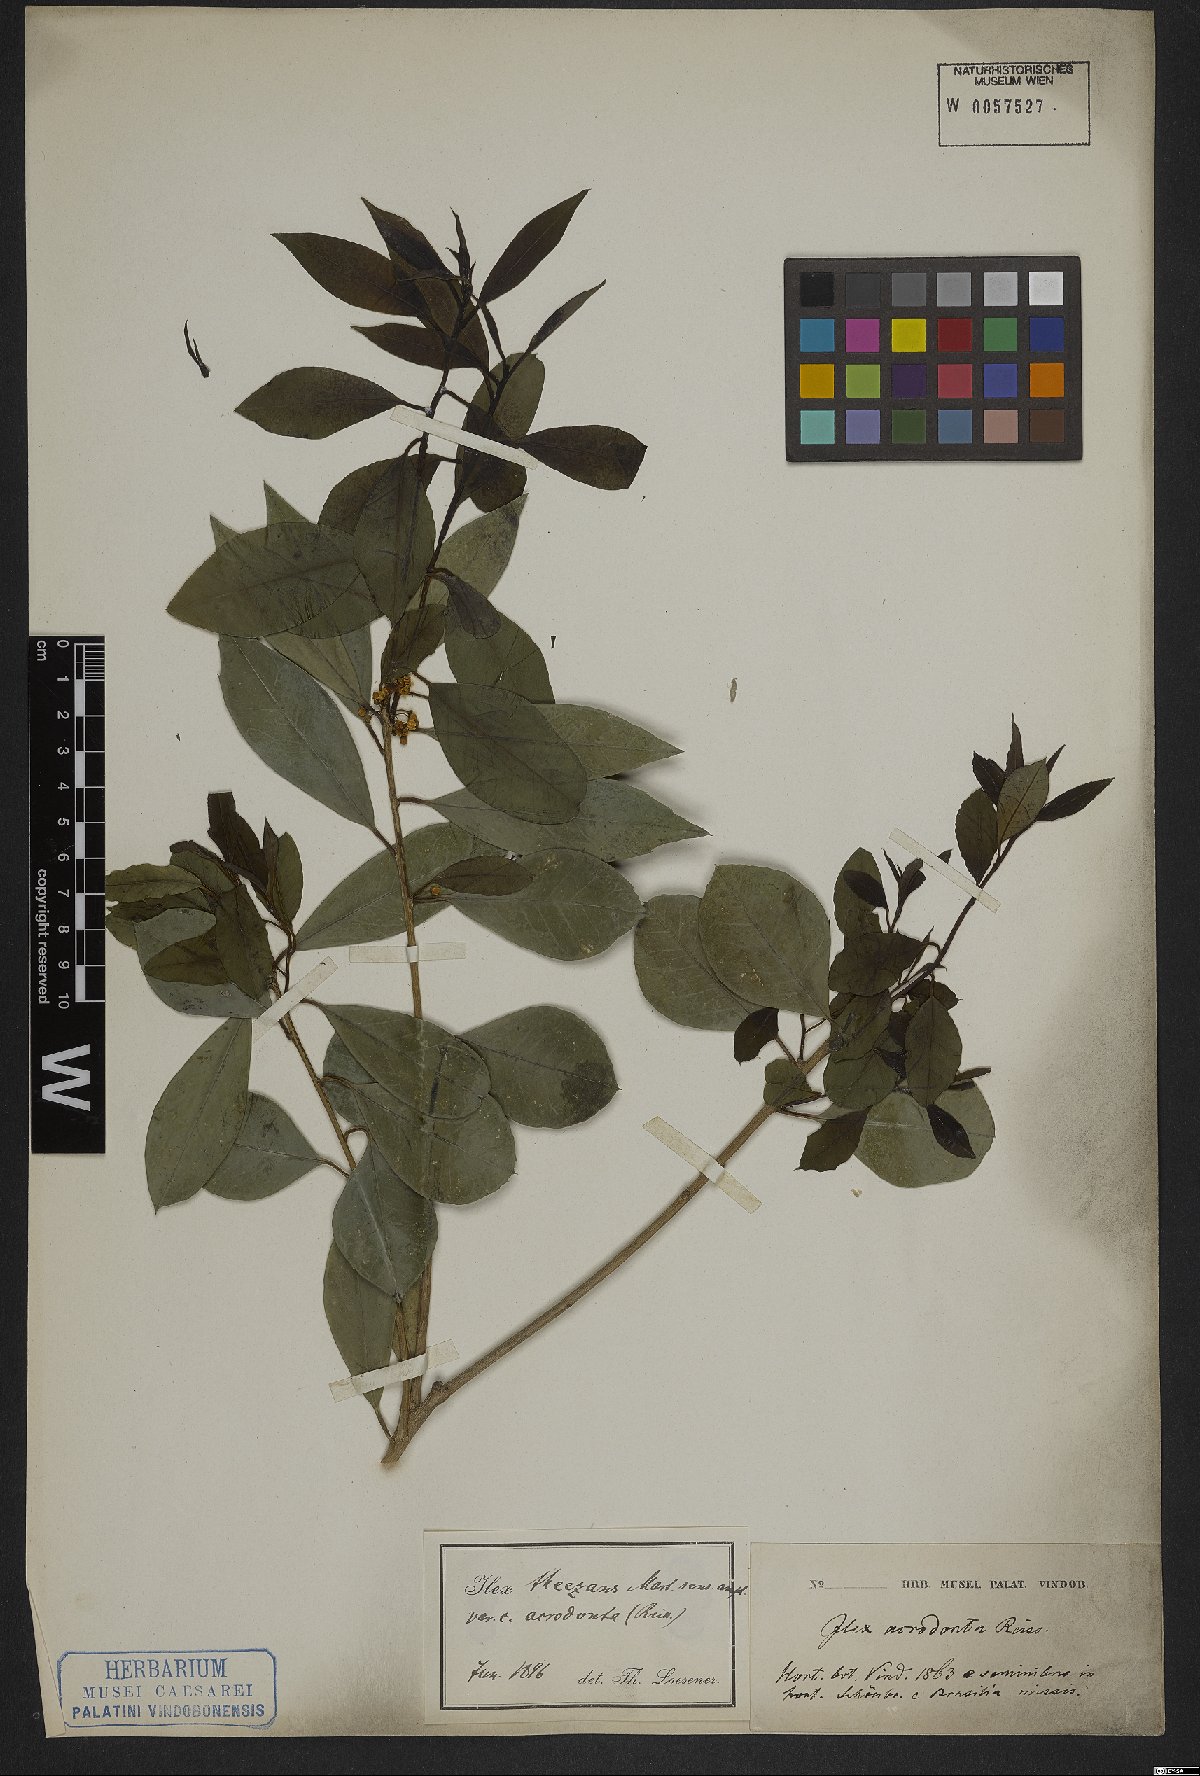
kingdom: Plantae
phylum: Tracheophyta
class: Magnoliopsida
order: Aquifoliales
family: Aquifoliaceae
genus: Ilex
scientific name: Ilex theezans
